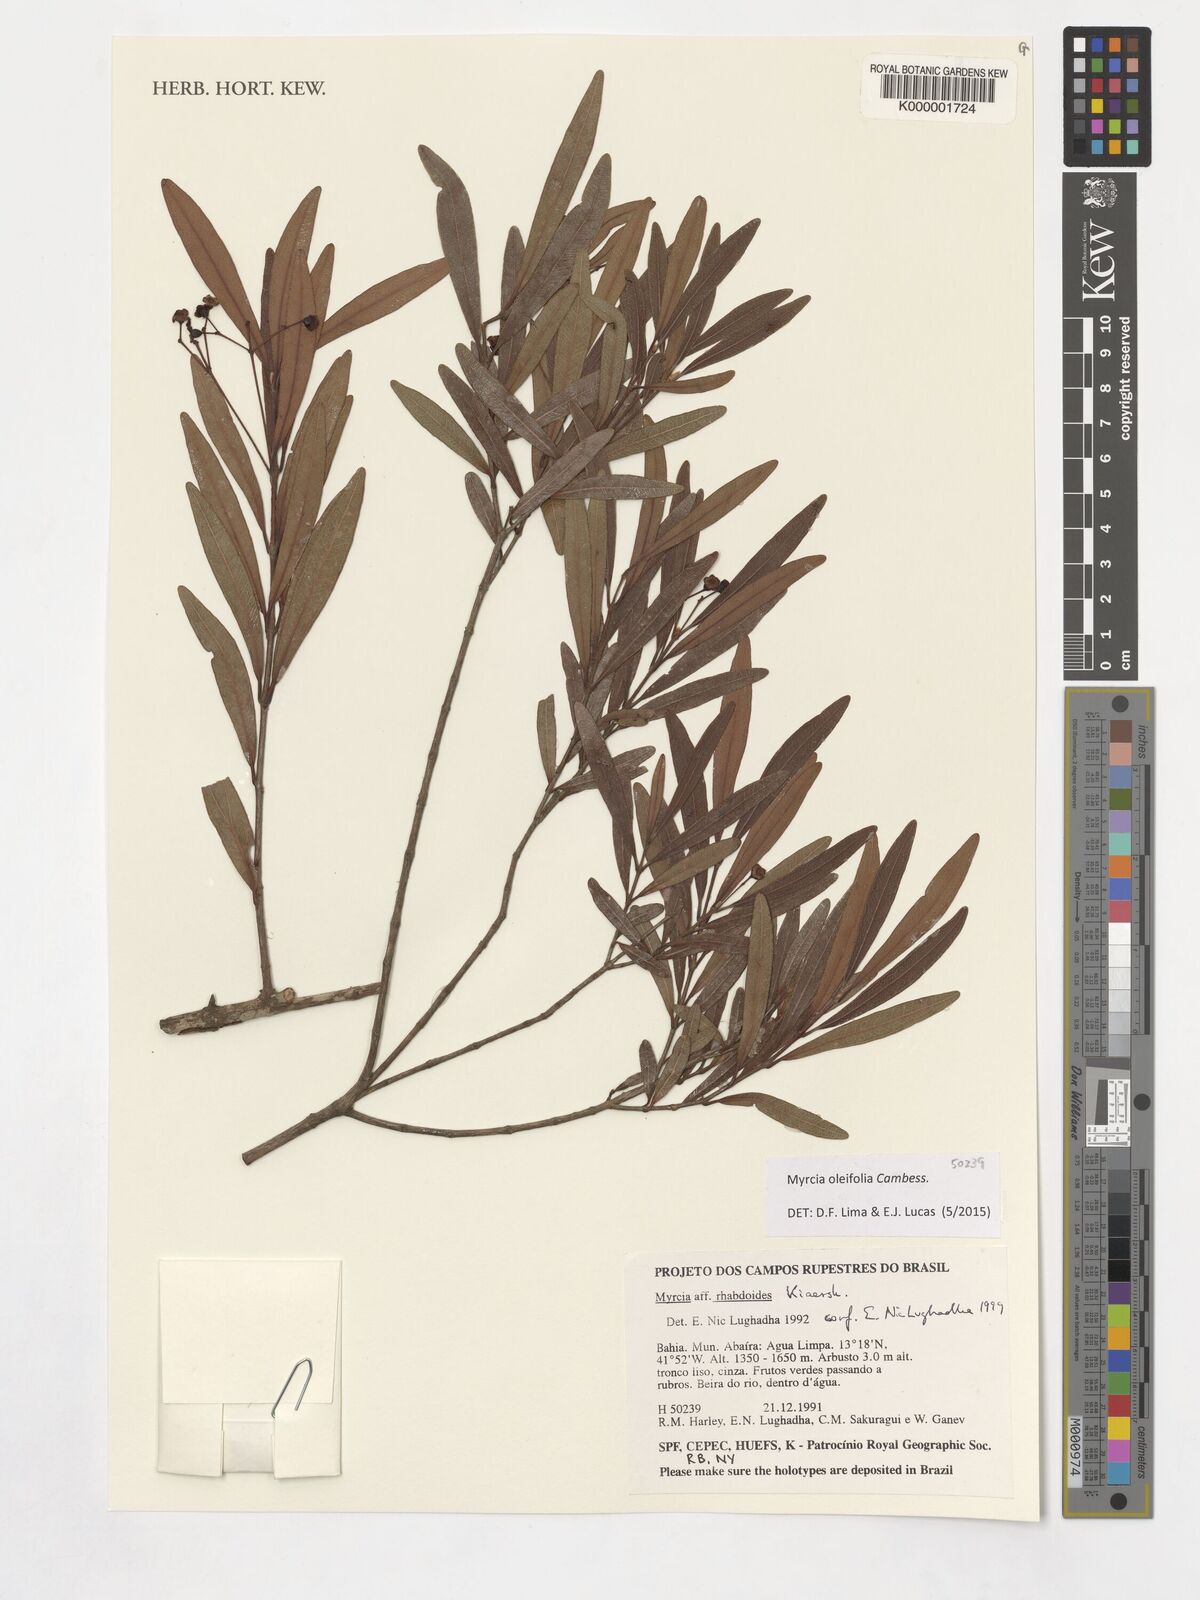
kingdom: Plantae
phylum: Tracheophyta
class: Magnoliopsida
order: Myrtales
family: Myrtaceae
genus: Myrcia
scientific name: Myrcia venulosa
